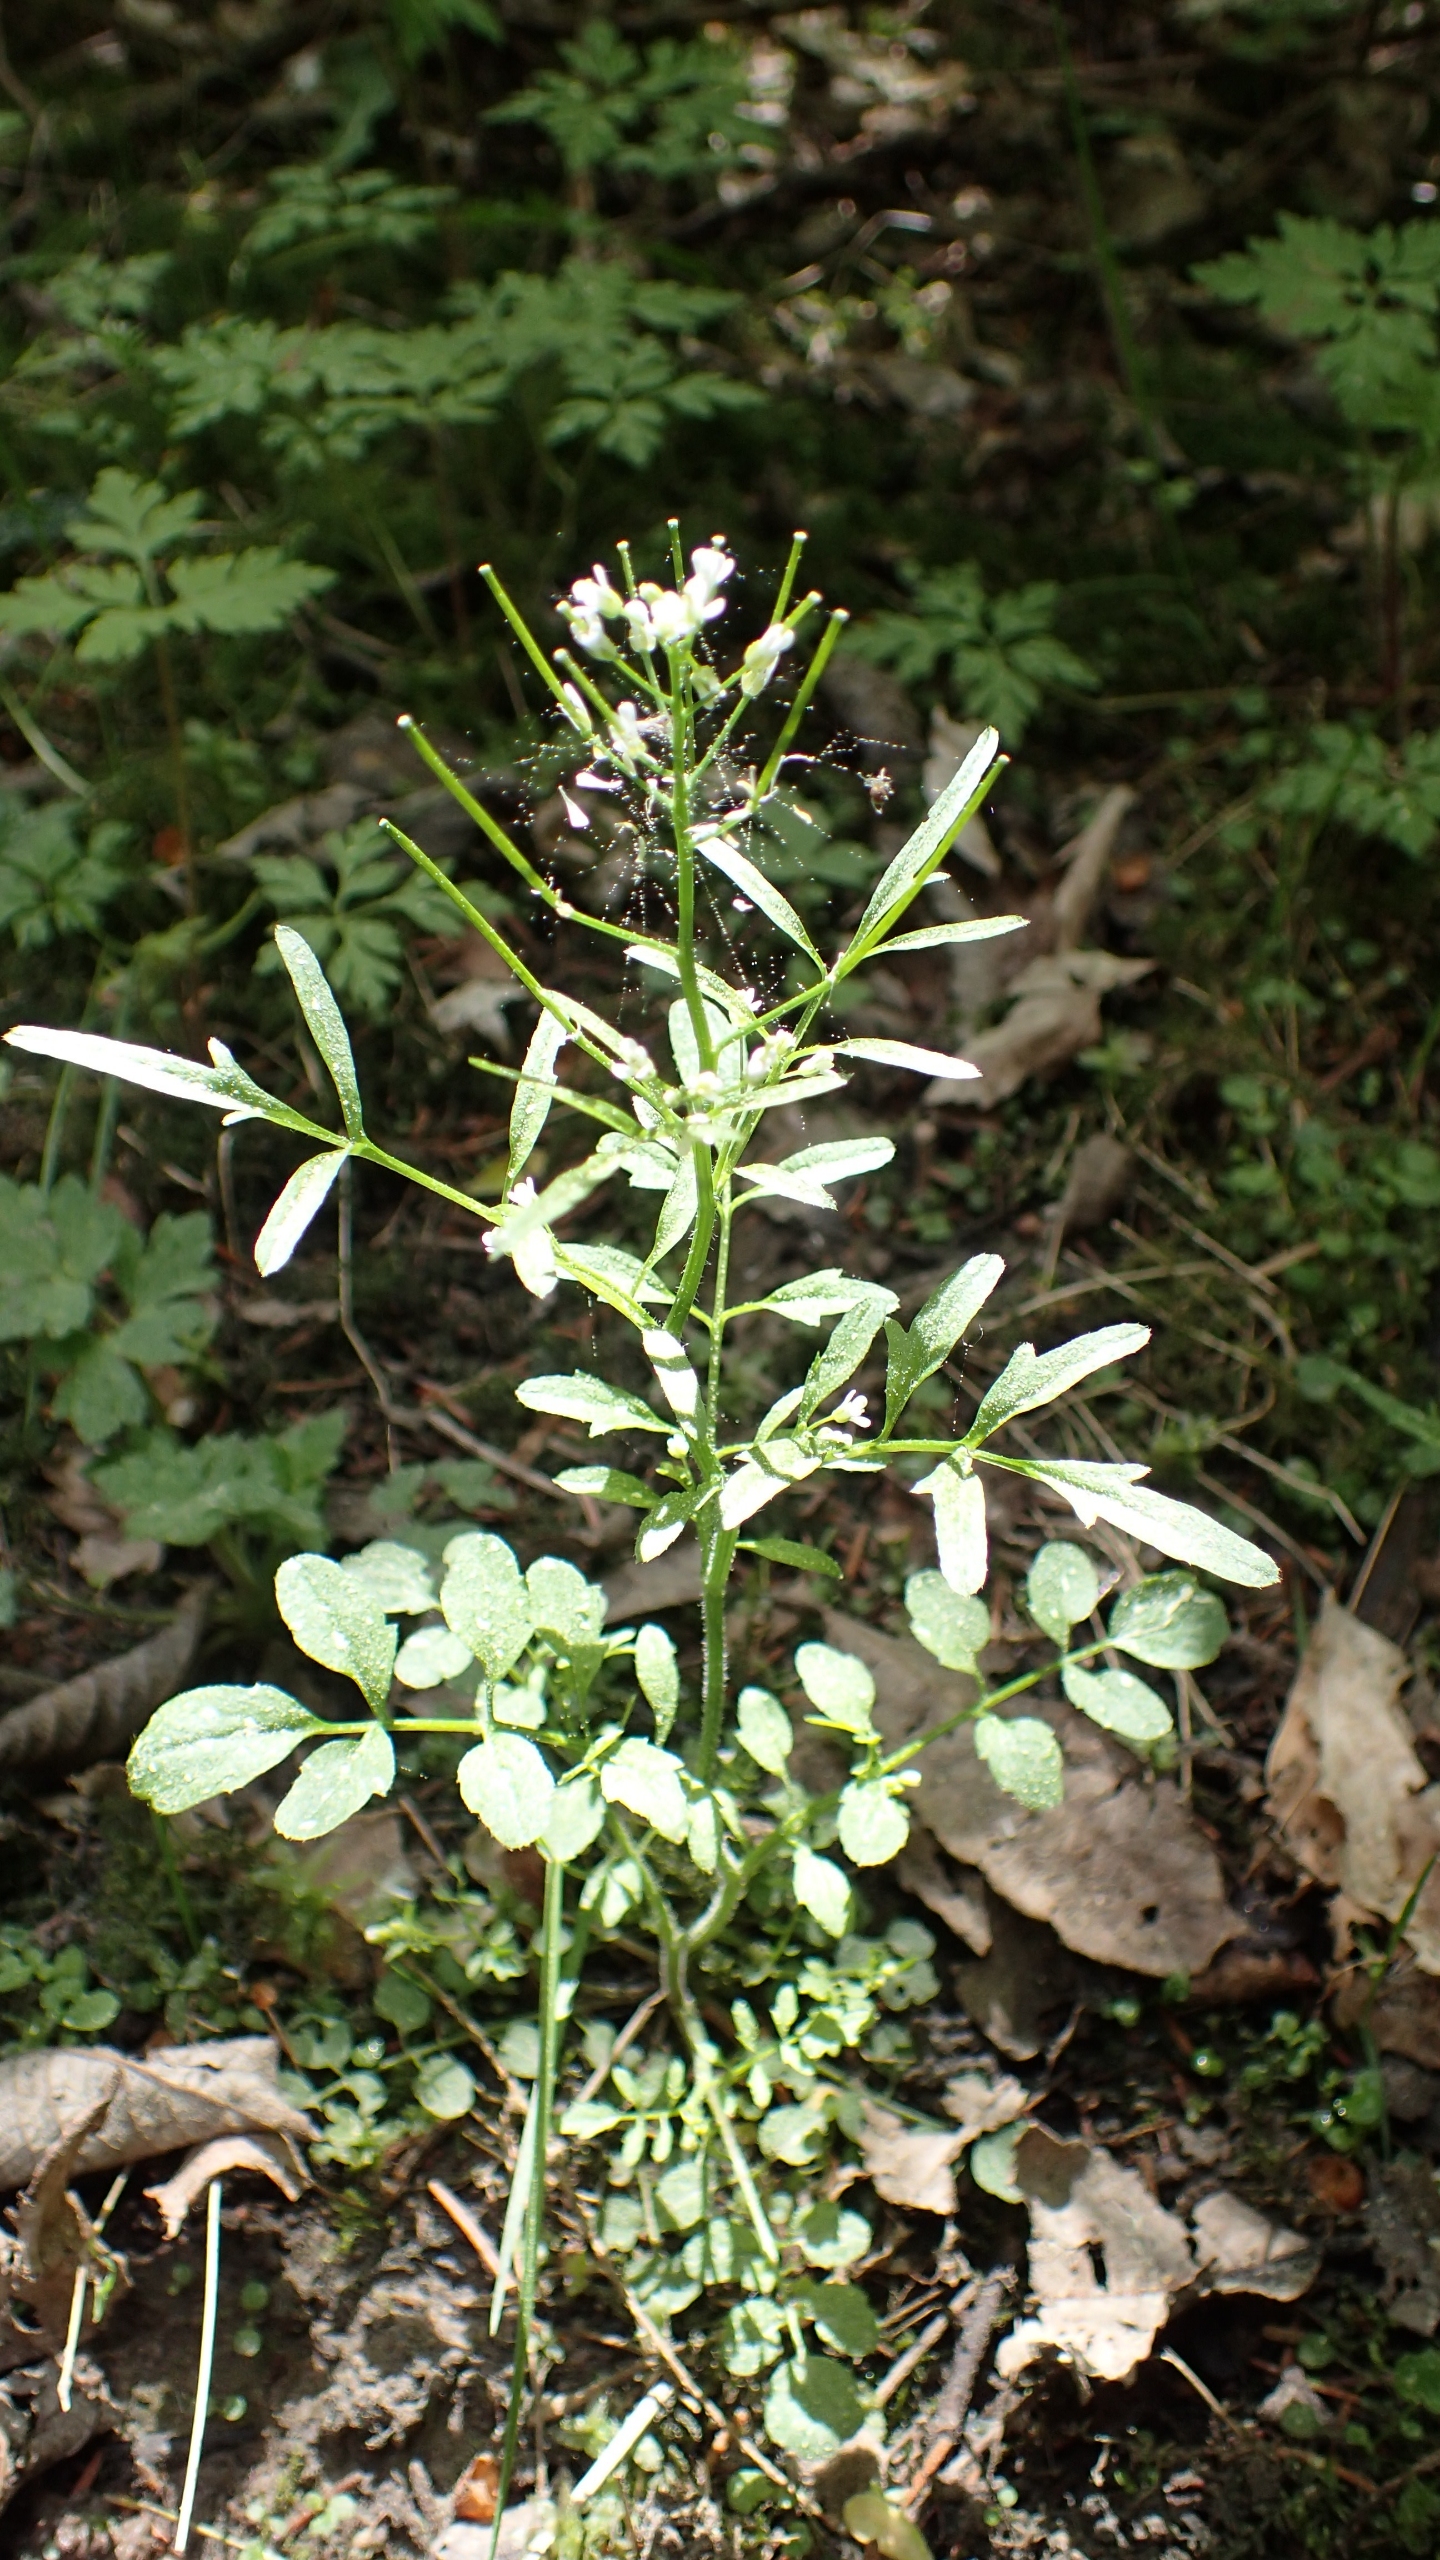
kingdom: Plantae
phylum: Tracheophyta
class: Magnoliopsida
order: Brassicales
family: Brassicaceae
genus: Cardamine
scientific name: Cardamine flexuosa
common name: Skov-springklap
